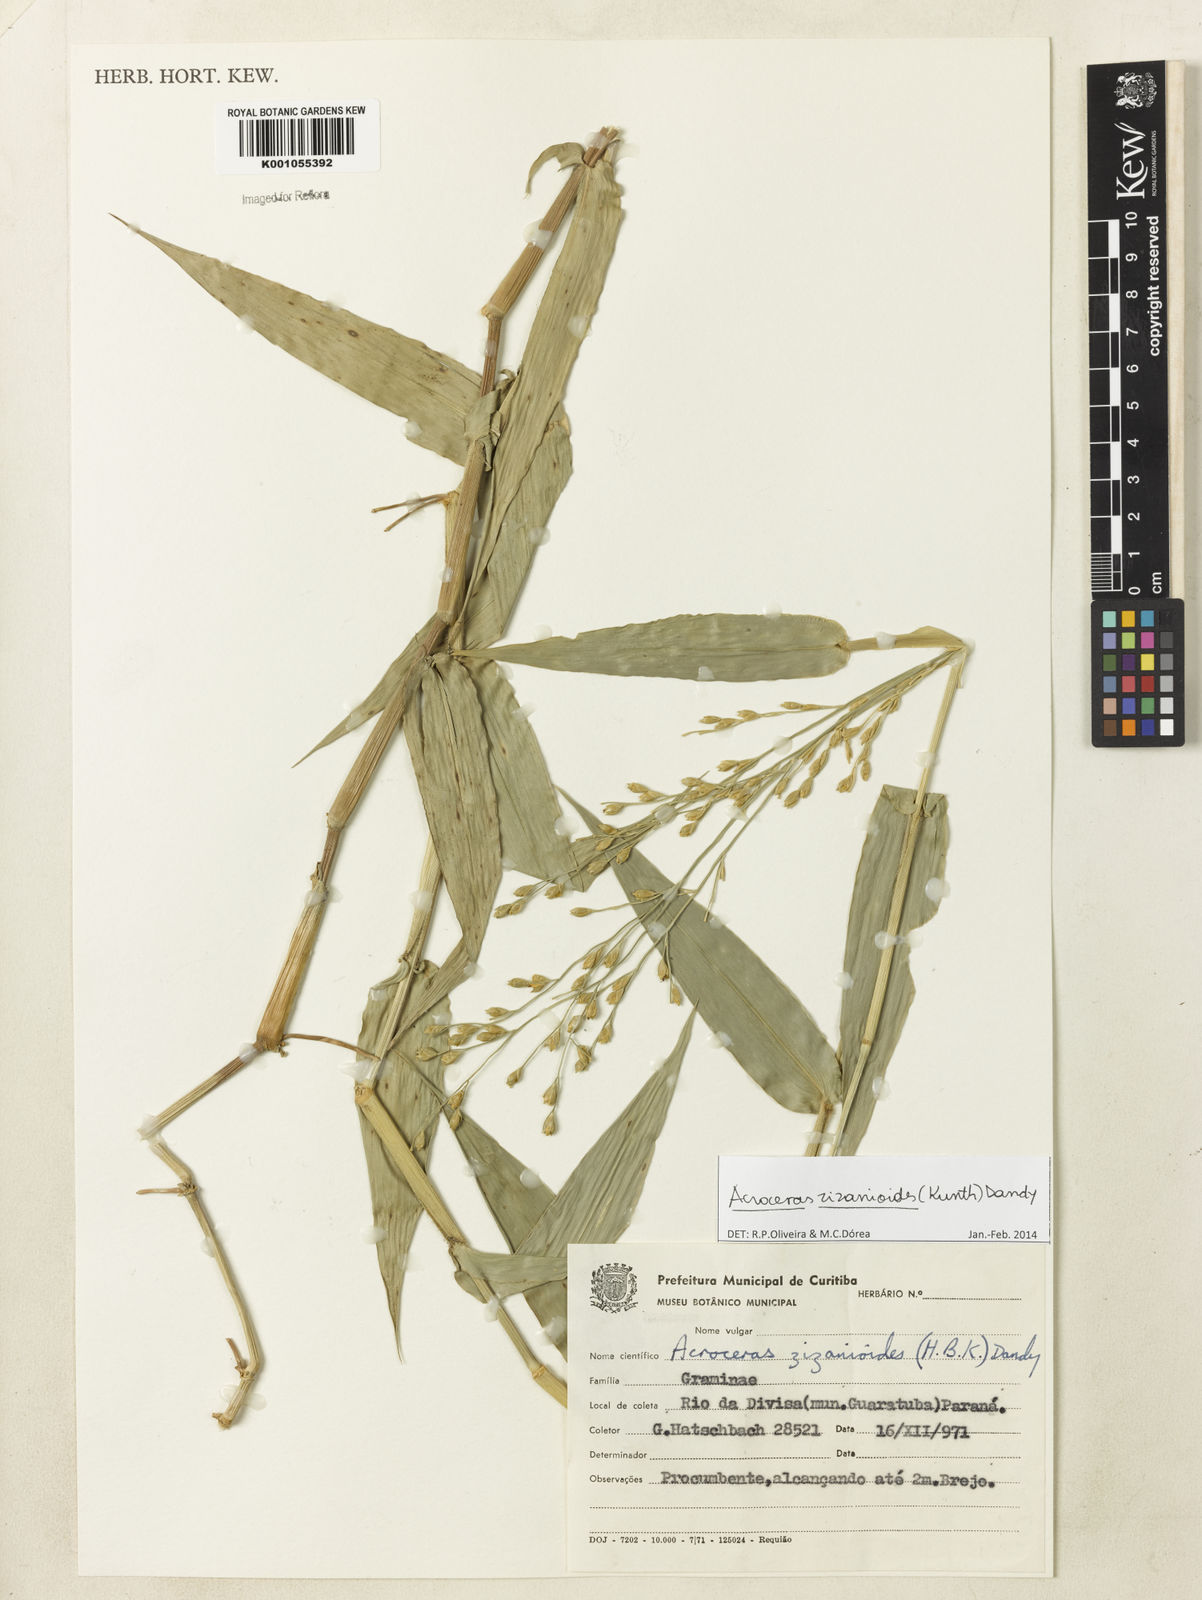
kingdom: Plantae
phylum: Tracheophyta
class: Liliopsida
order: Poales
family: Poaceae
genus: Acroceras
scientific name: Acroceras zizanioides
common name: Oat grass
